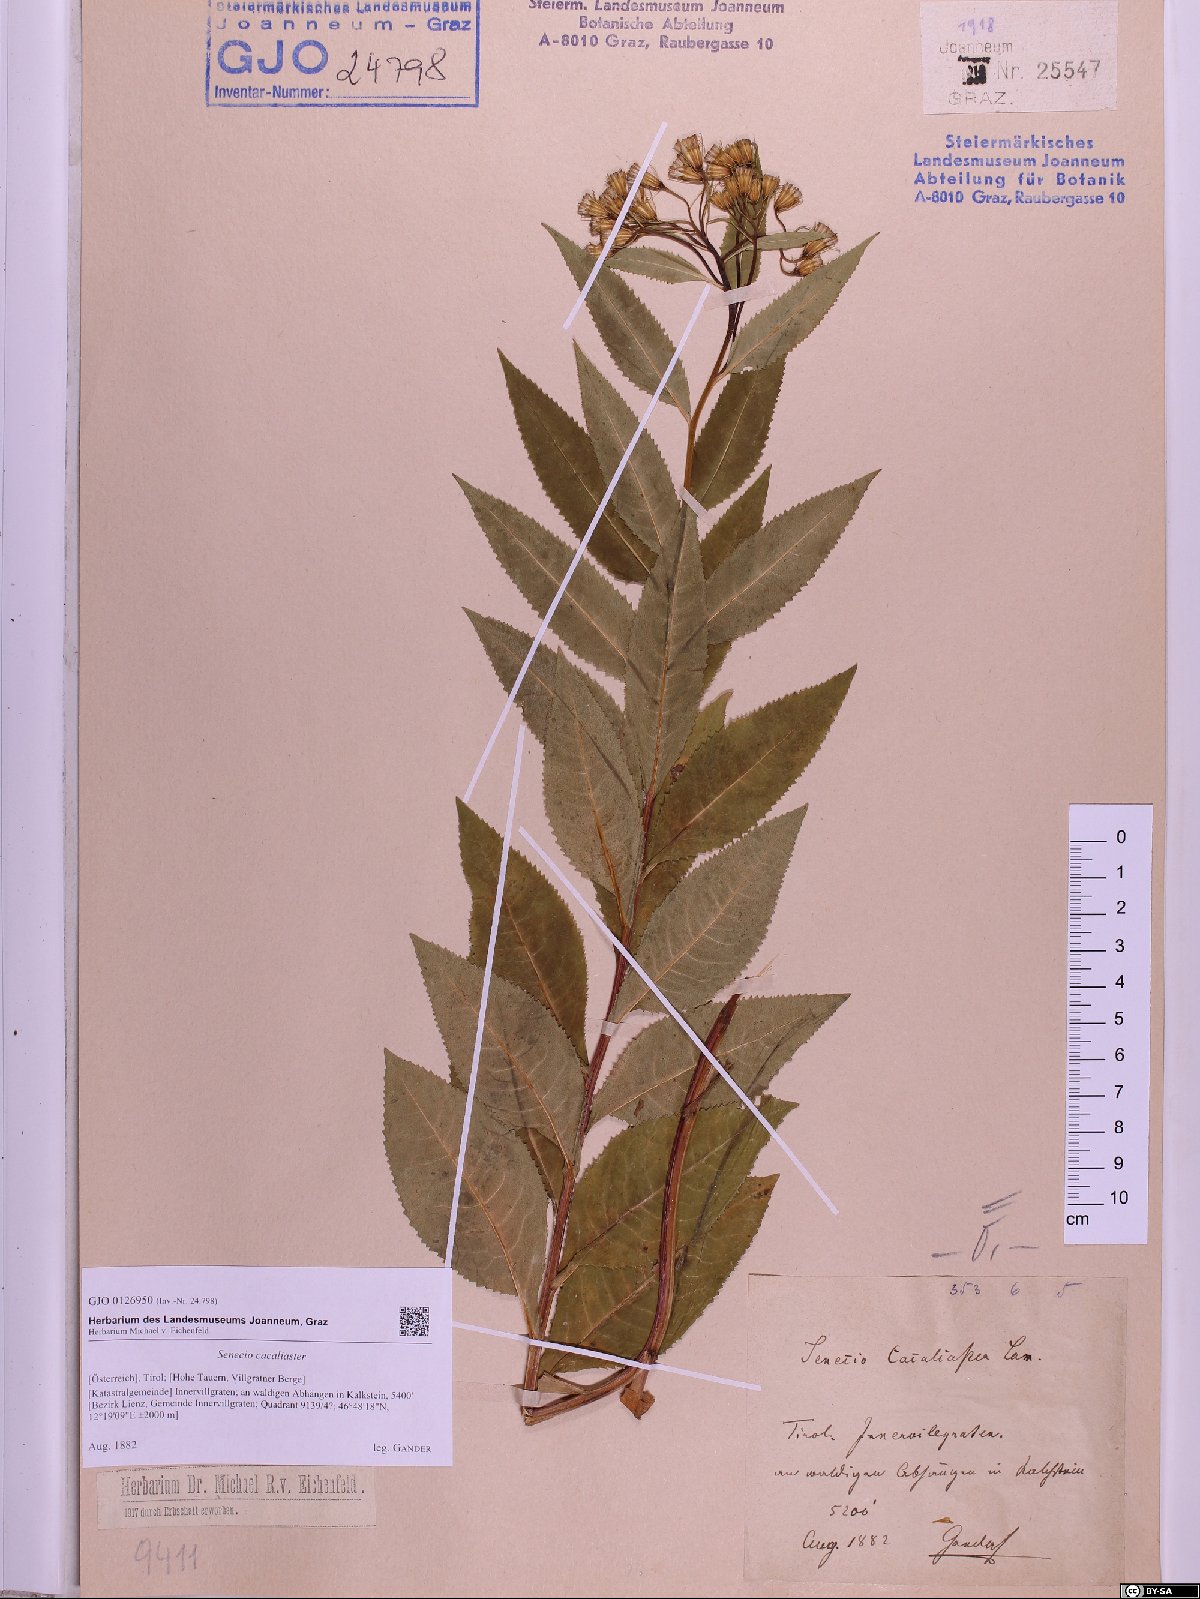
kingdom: Plantae
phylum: Tracheophyta
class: Magnoliopsida
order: Asterales
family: Asteraceae
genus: Senecio
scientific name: Senecio cacaliaster
